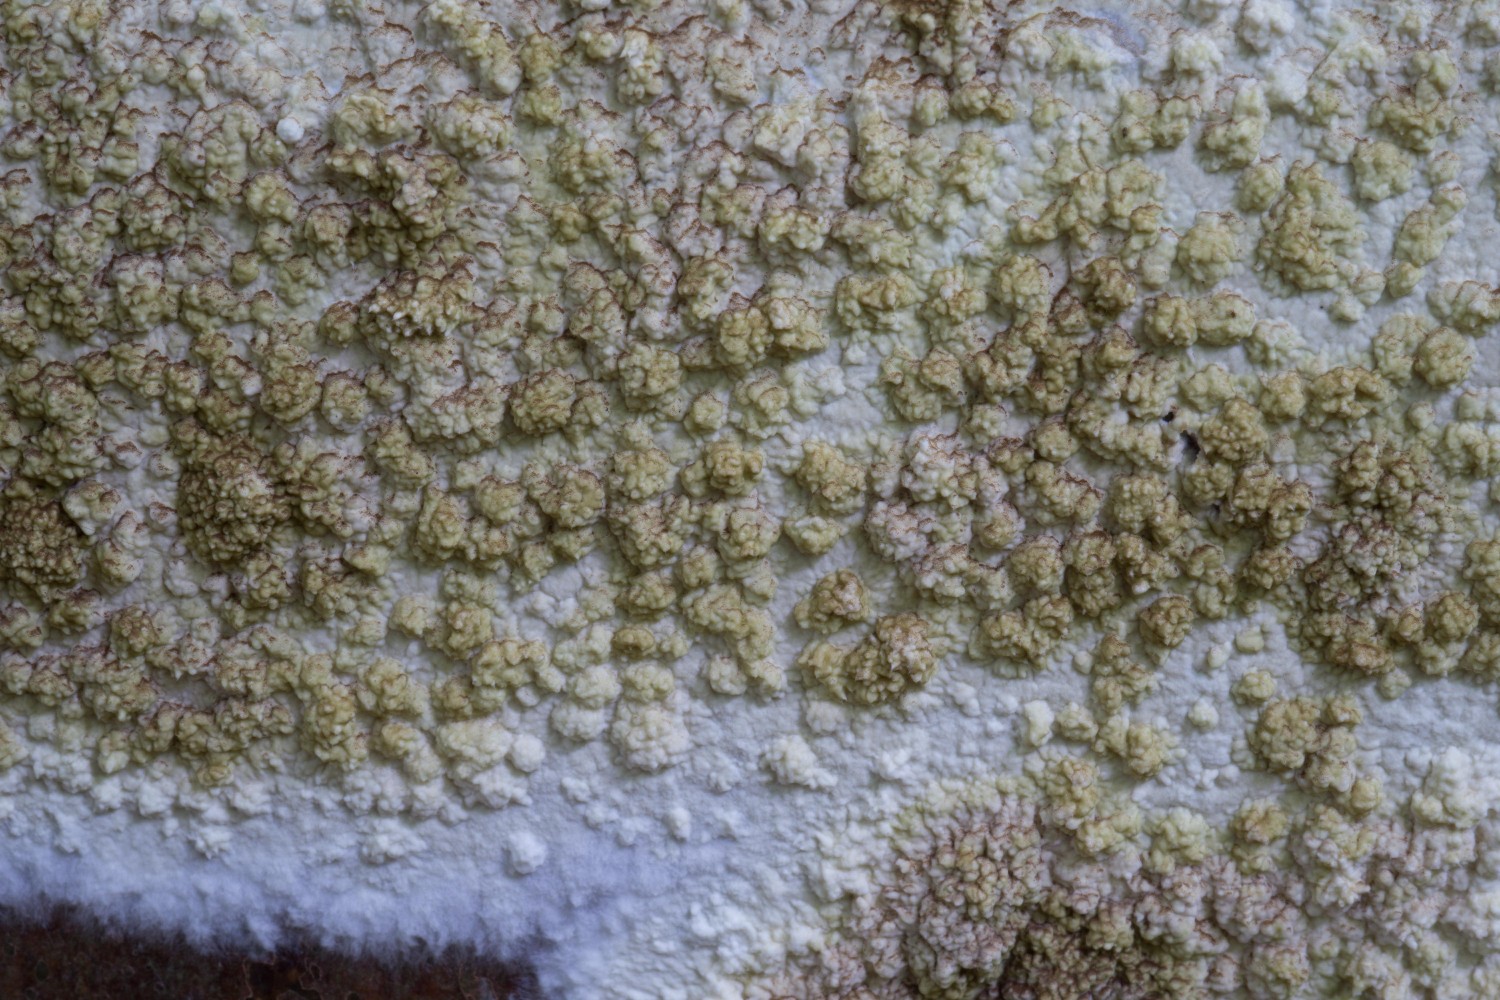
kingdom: Fungi
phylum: Basidiomycota
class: Agaricomycetes
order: Boletales
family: Coniophoraceae
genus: Coniophora
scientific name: Coniophora puteana
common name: gul tømmersvamp
